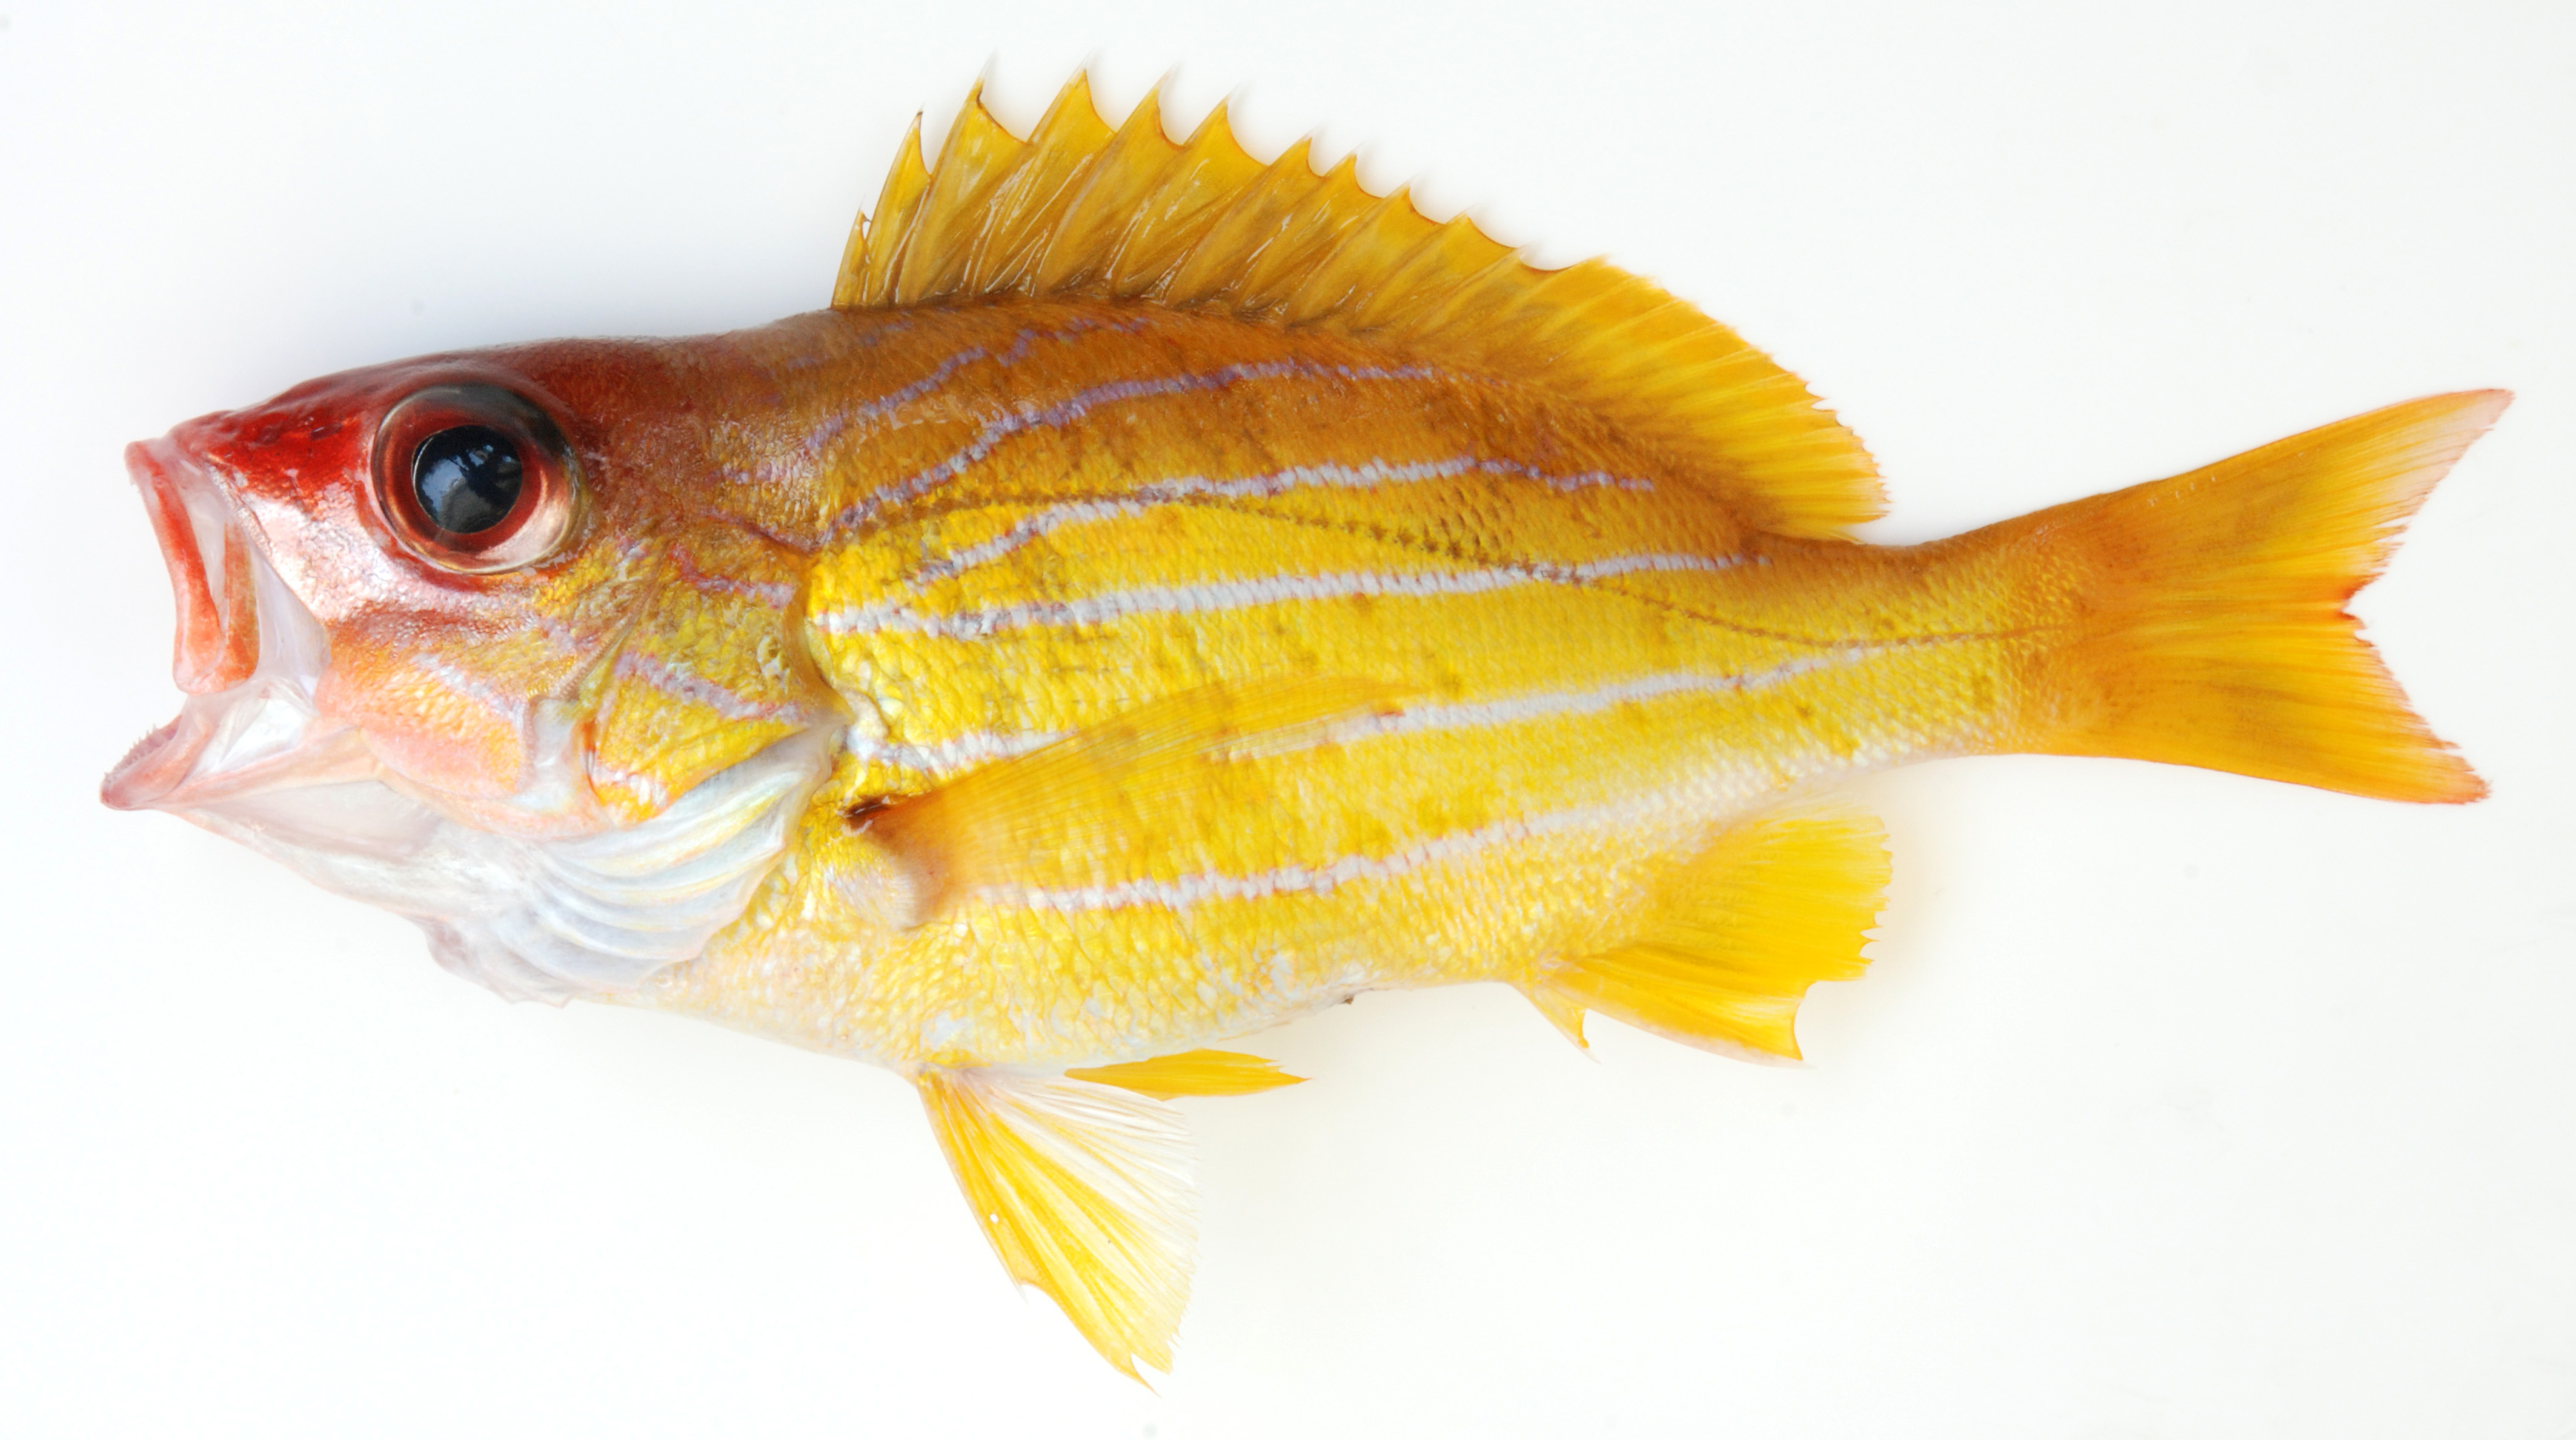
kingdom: Animalia
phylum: Chordata
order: Perciformes
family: Lutjanidae
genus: Lutjanus
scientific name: Lutjanus notatus
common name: Bluestriped snapper
